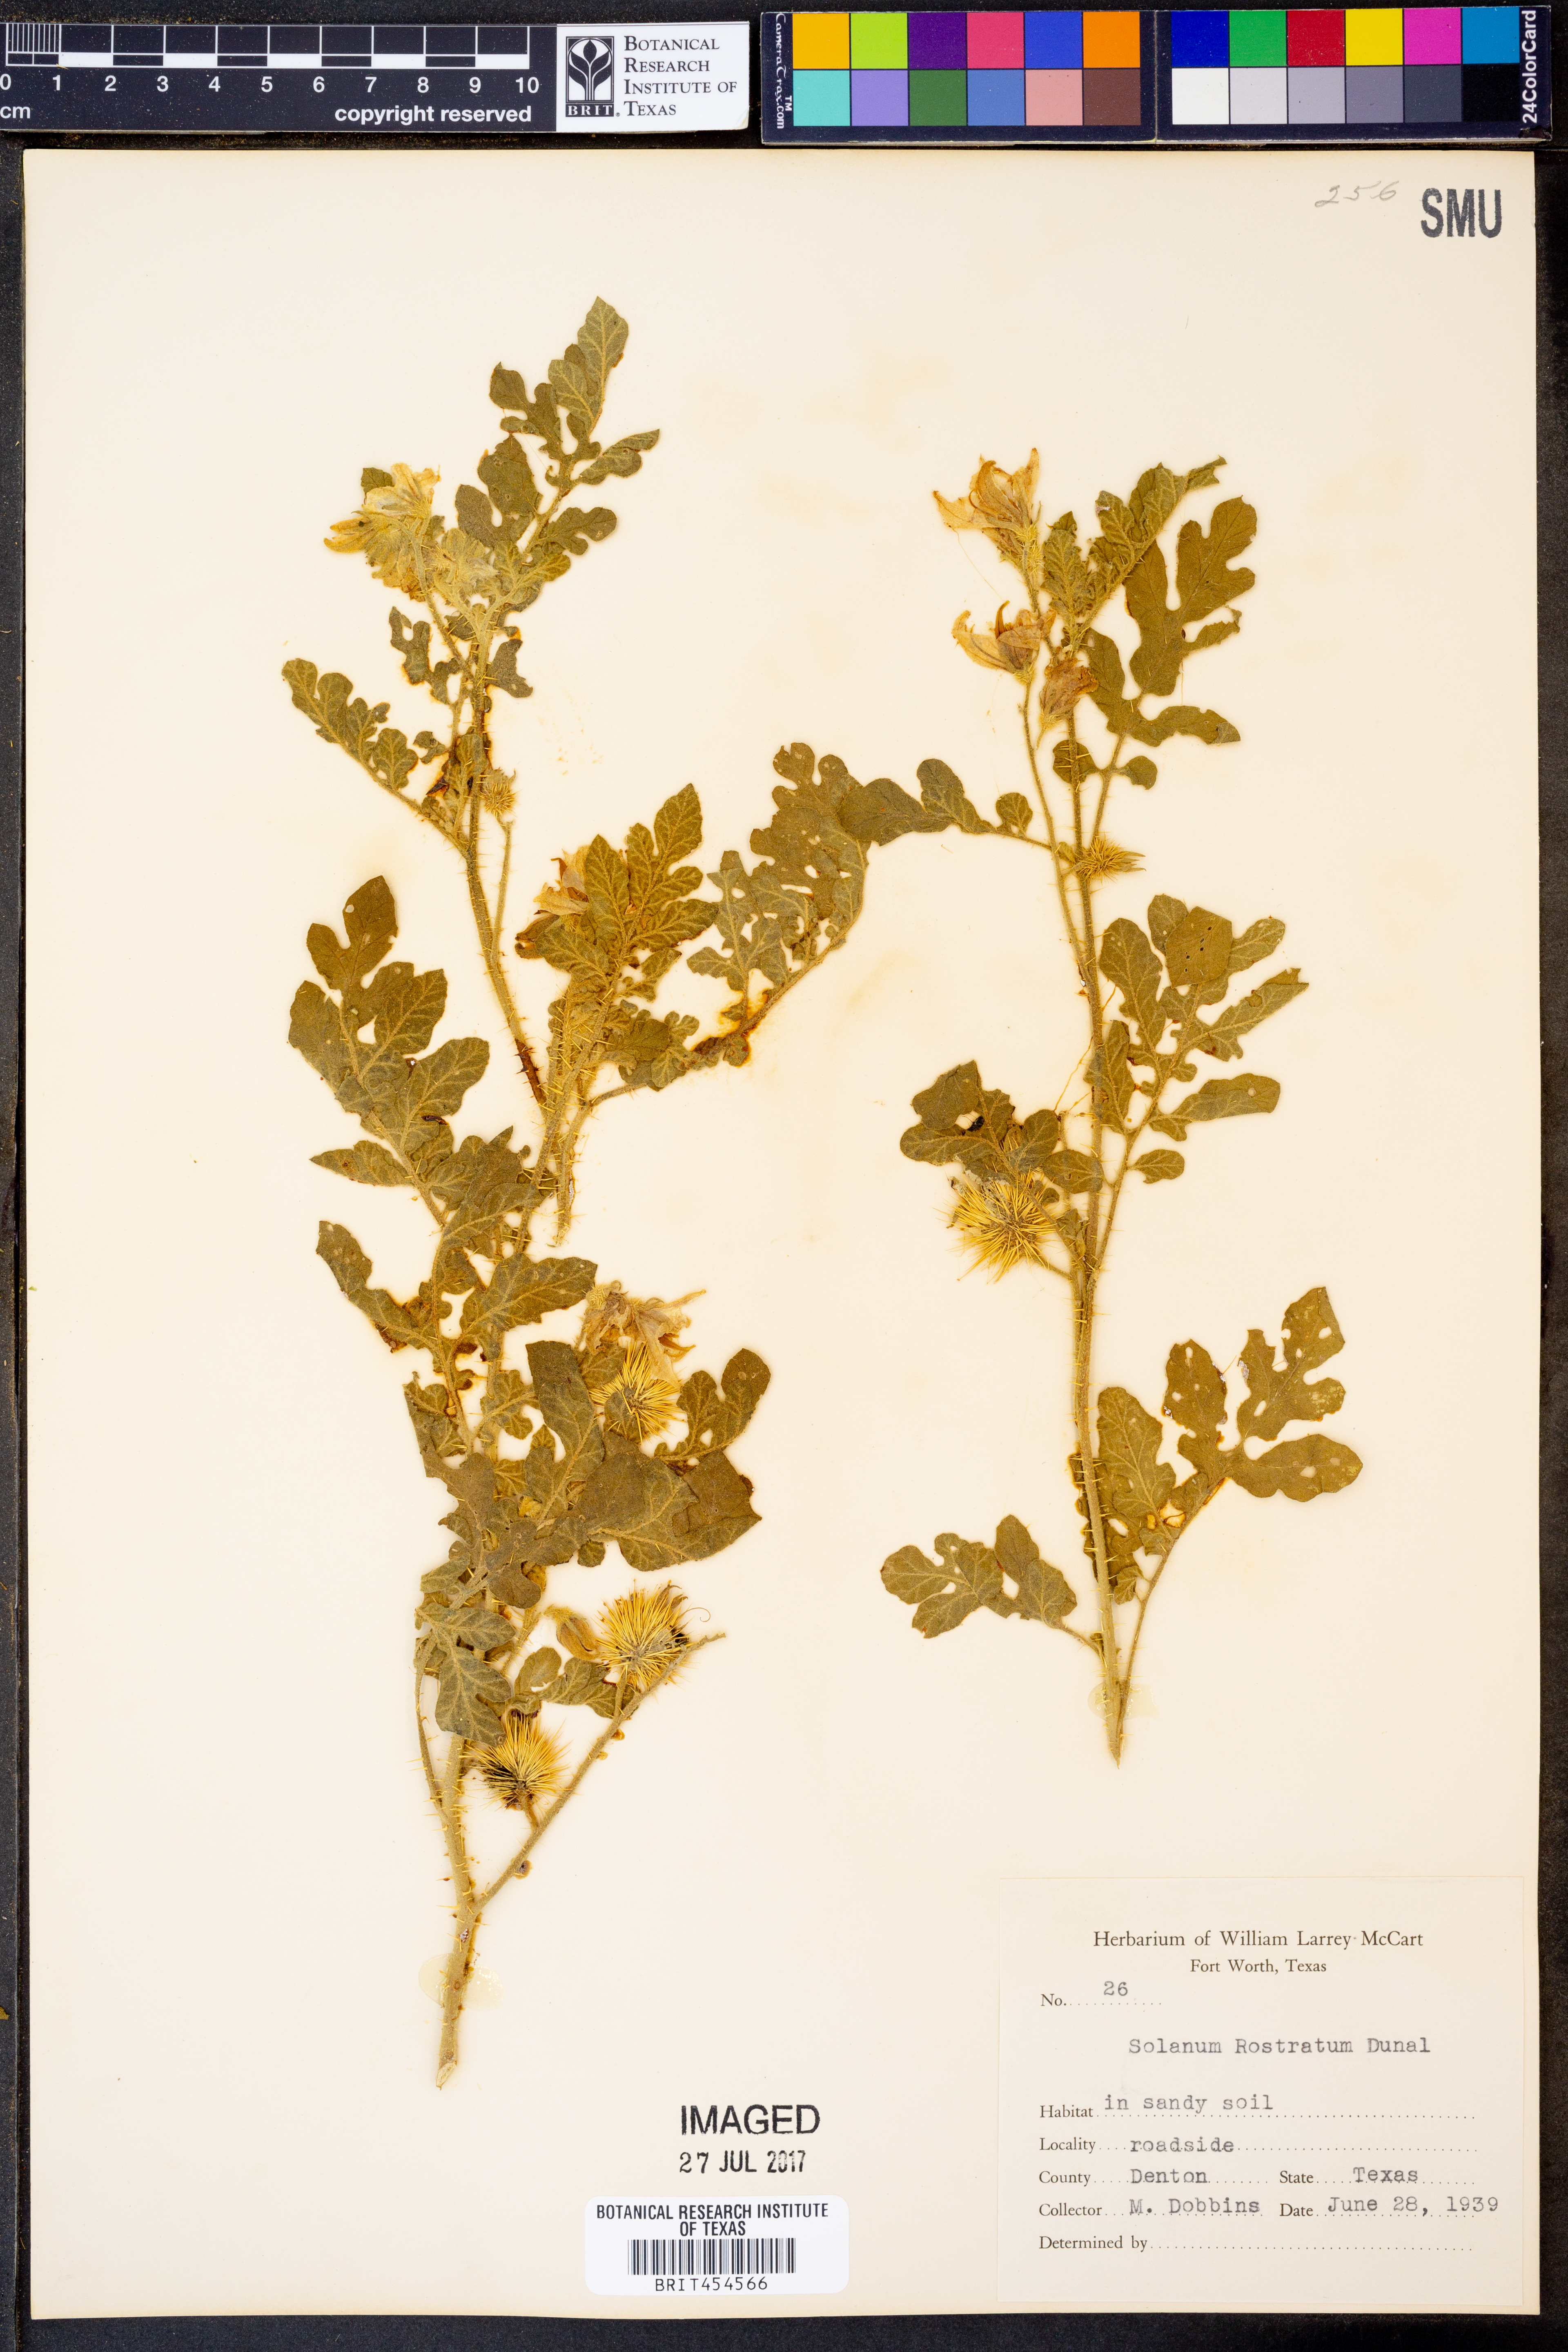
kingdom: Plantae
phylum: Tracheophyta
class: Magnoliopsida
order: Solanales
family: Solanaceae
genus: Solanum
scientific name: Solanum angustifolium
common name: Buffalobur nightshade
